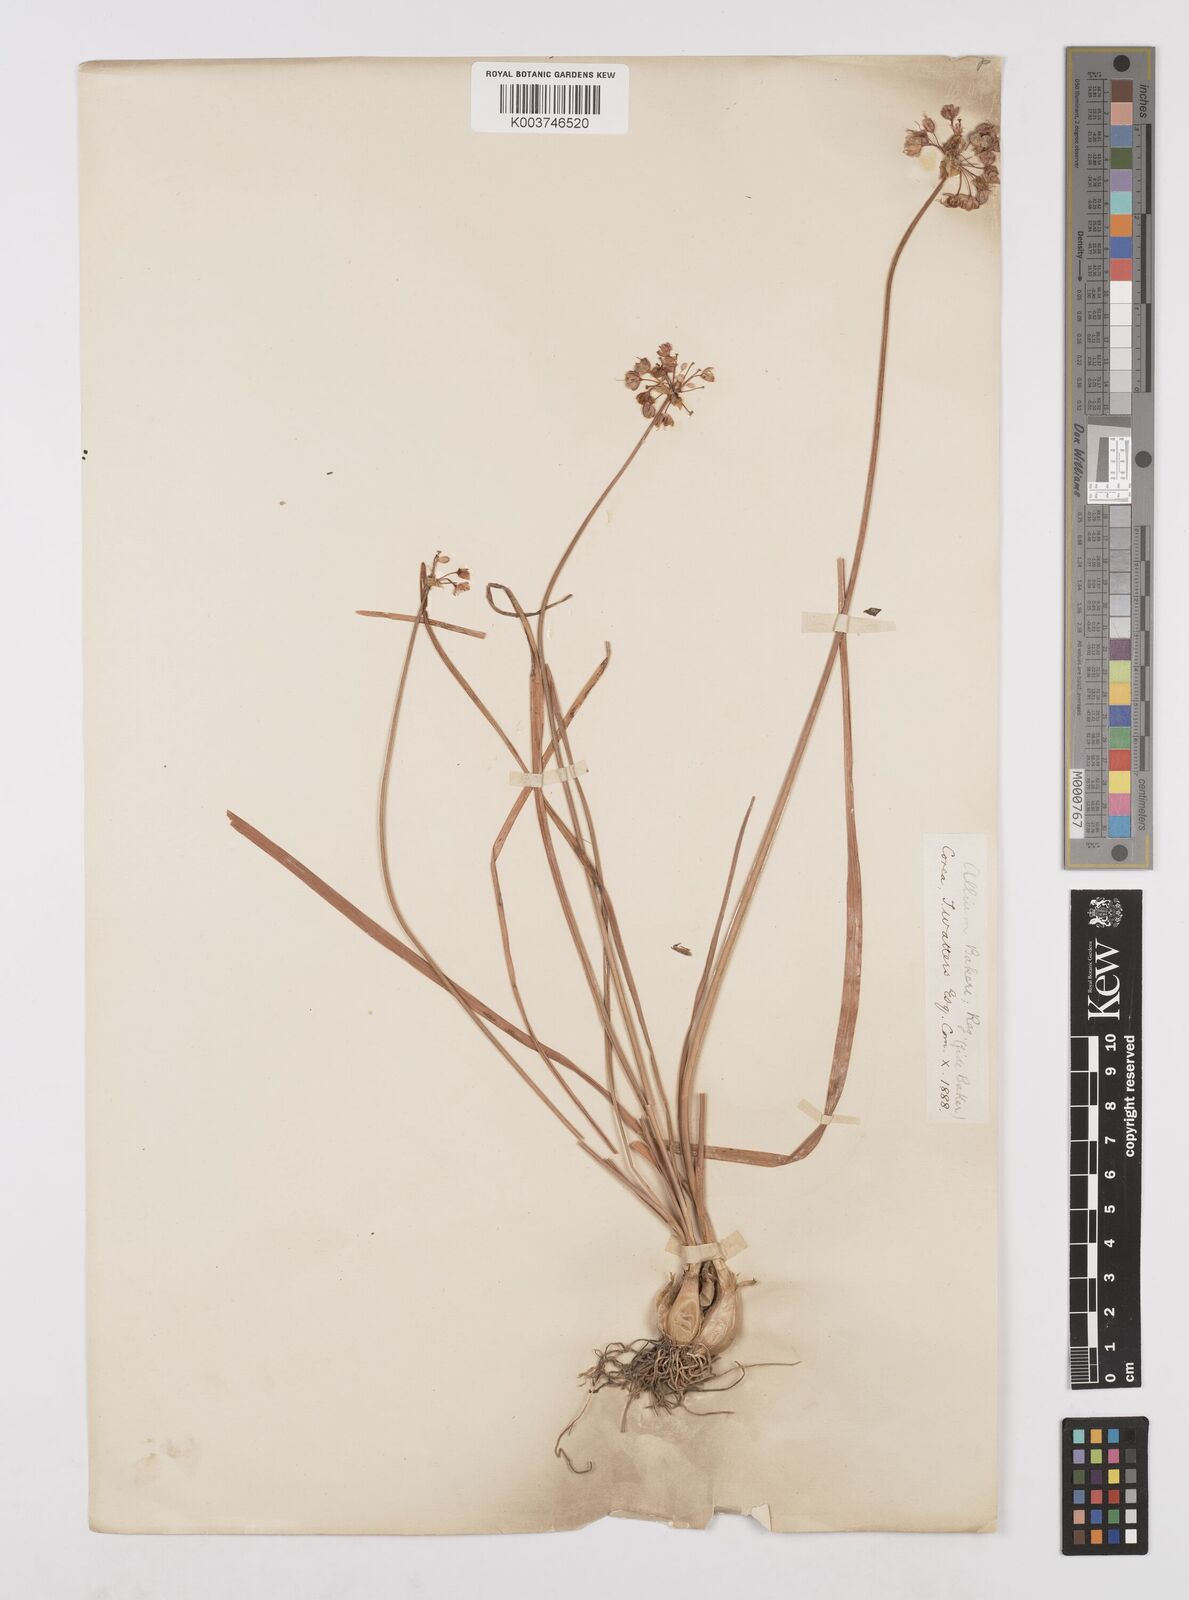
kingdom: Plantae
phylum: Tracheophyta
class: Liliopsida
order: Asparagales
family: Amaryllidaceae
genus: Allium
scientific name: Allium chinense
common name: Japanese scallion
